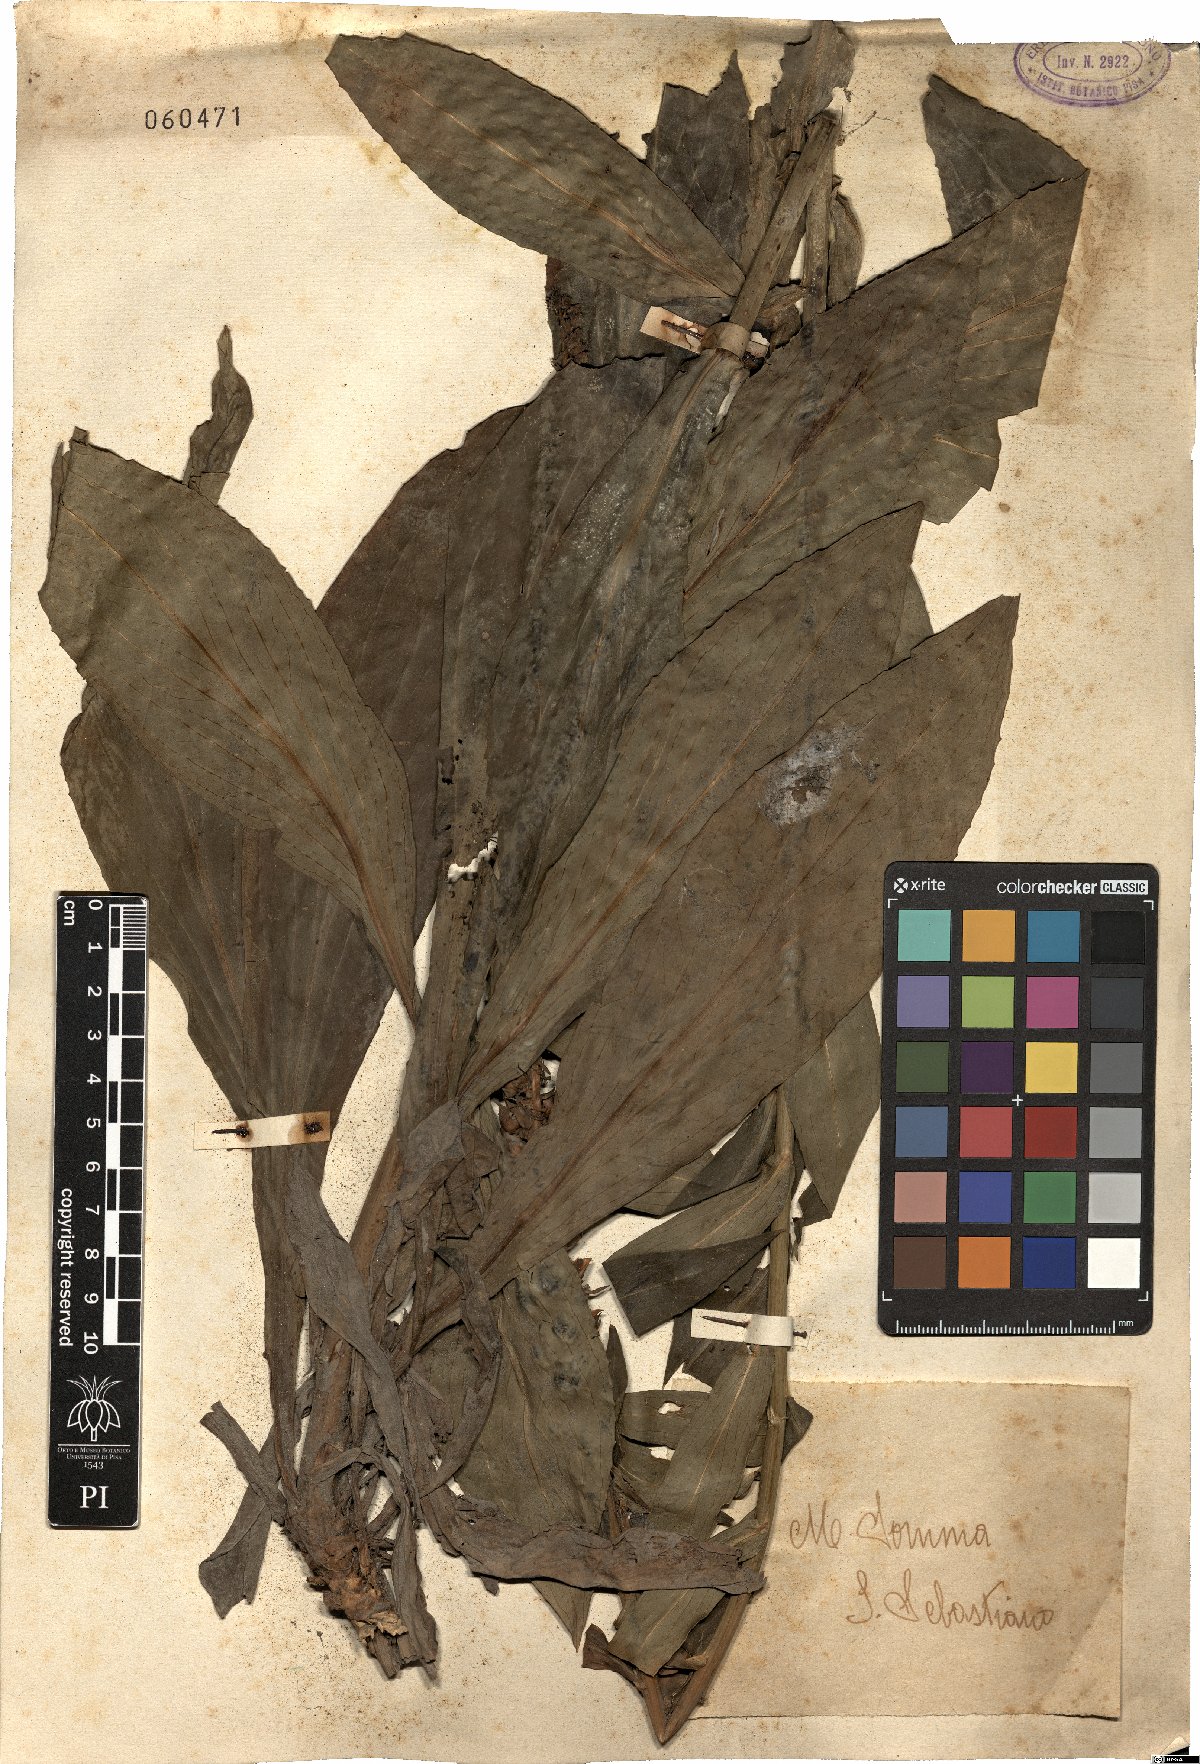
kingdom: Plantae
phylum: Tracheophyta
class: Magnoliopsida
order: Lamiales
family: Plantaginaceae
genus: Digitalis
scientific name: Digitalis lutea
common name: Straw foxglove
